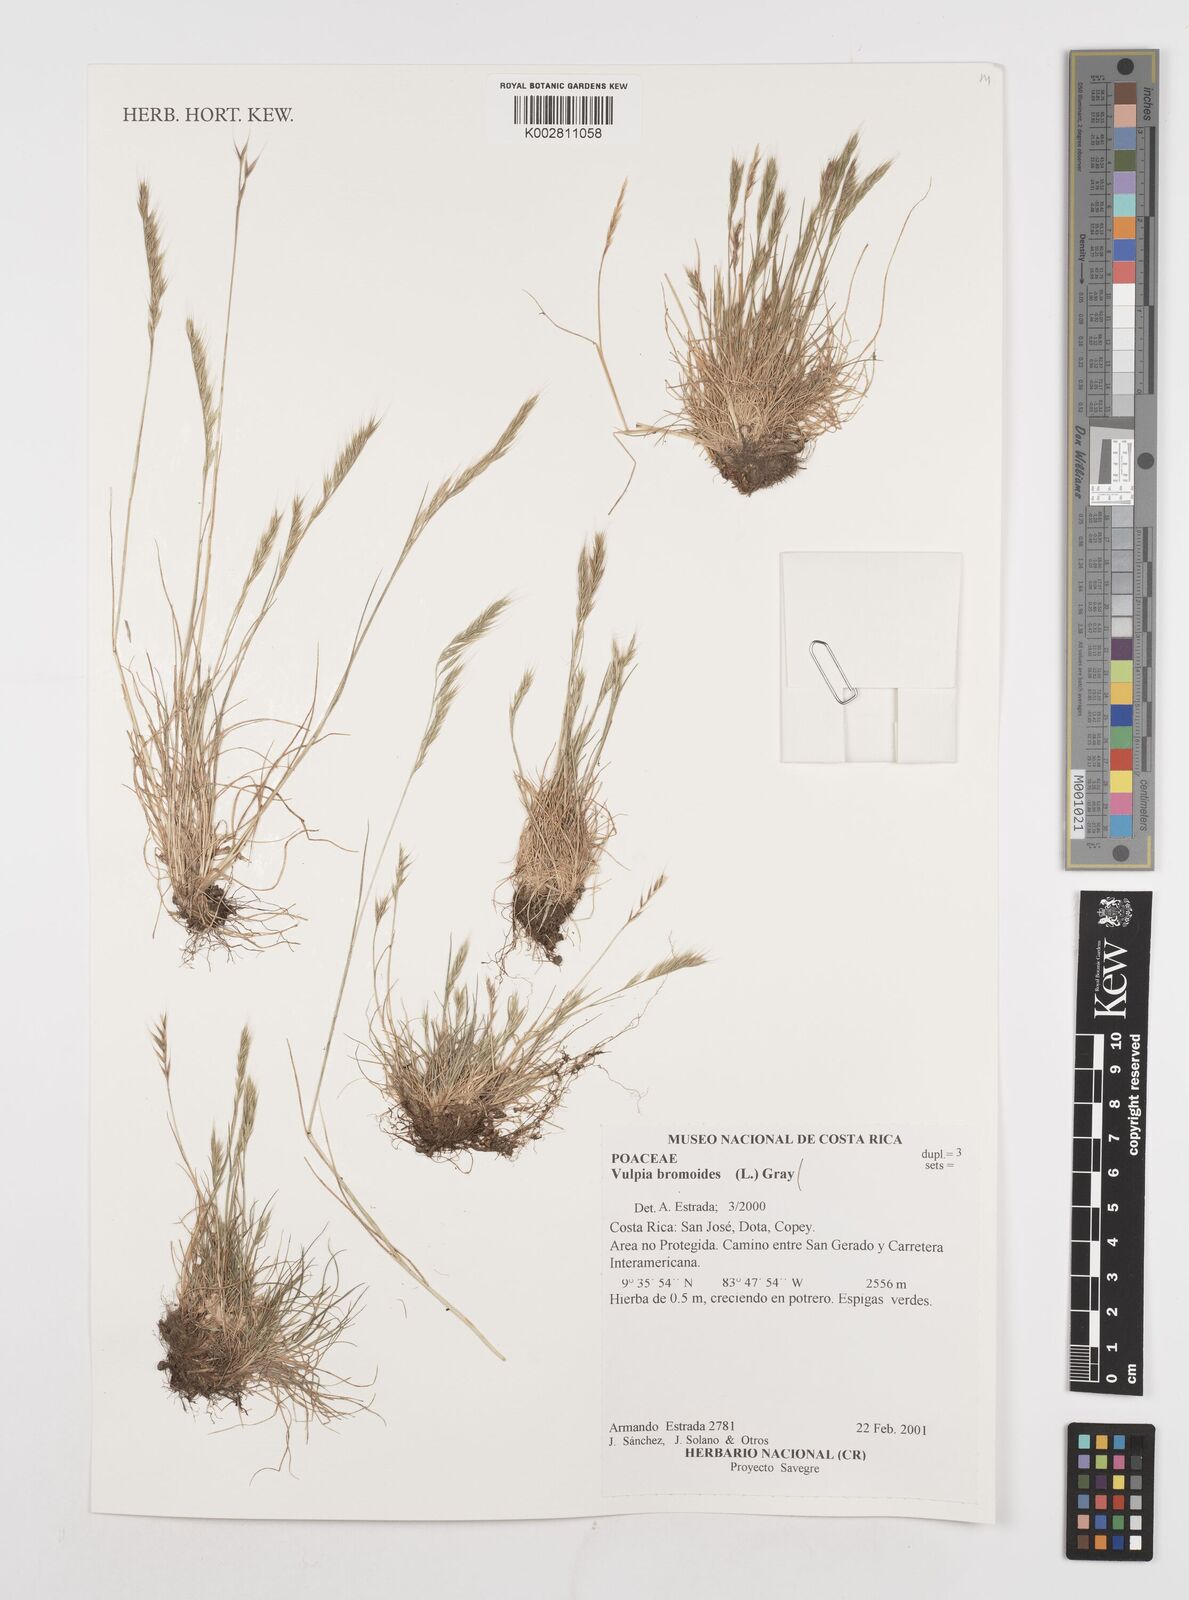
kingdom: Plantae
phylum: Tracheophyta
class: Liliopsida
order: Poales
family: Poaceae
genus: Festuca
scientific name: Festuca bromoides
